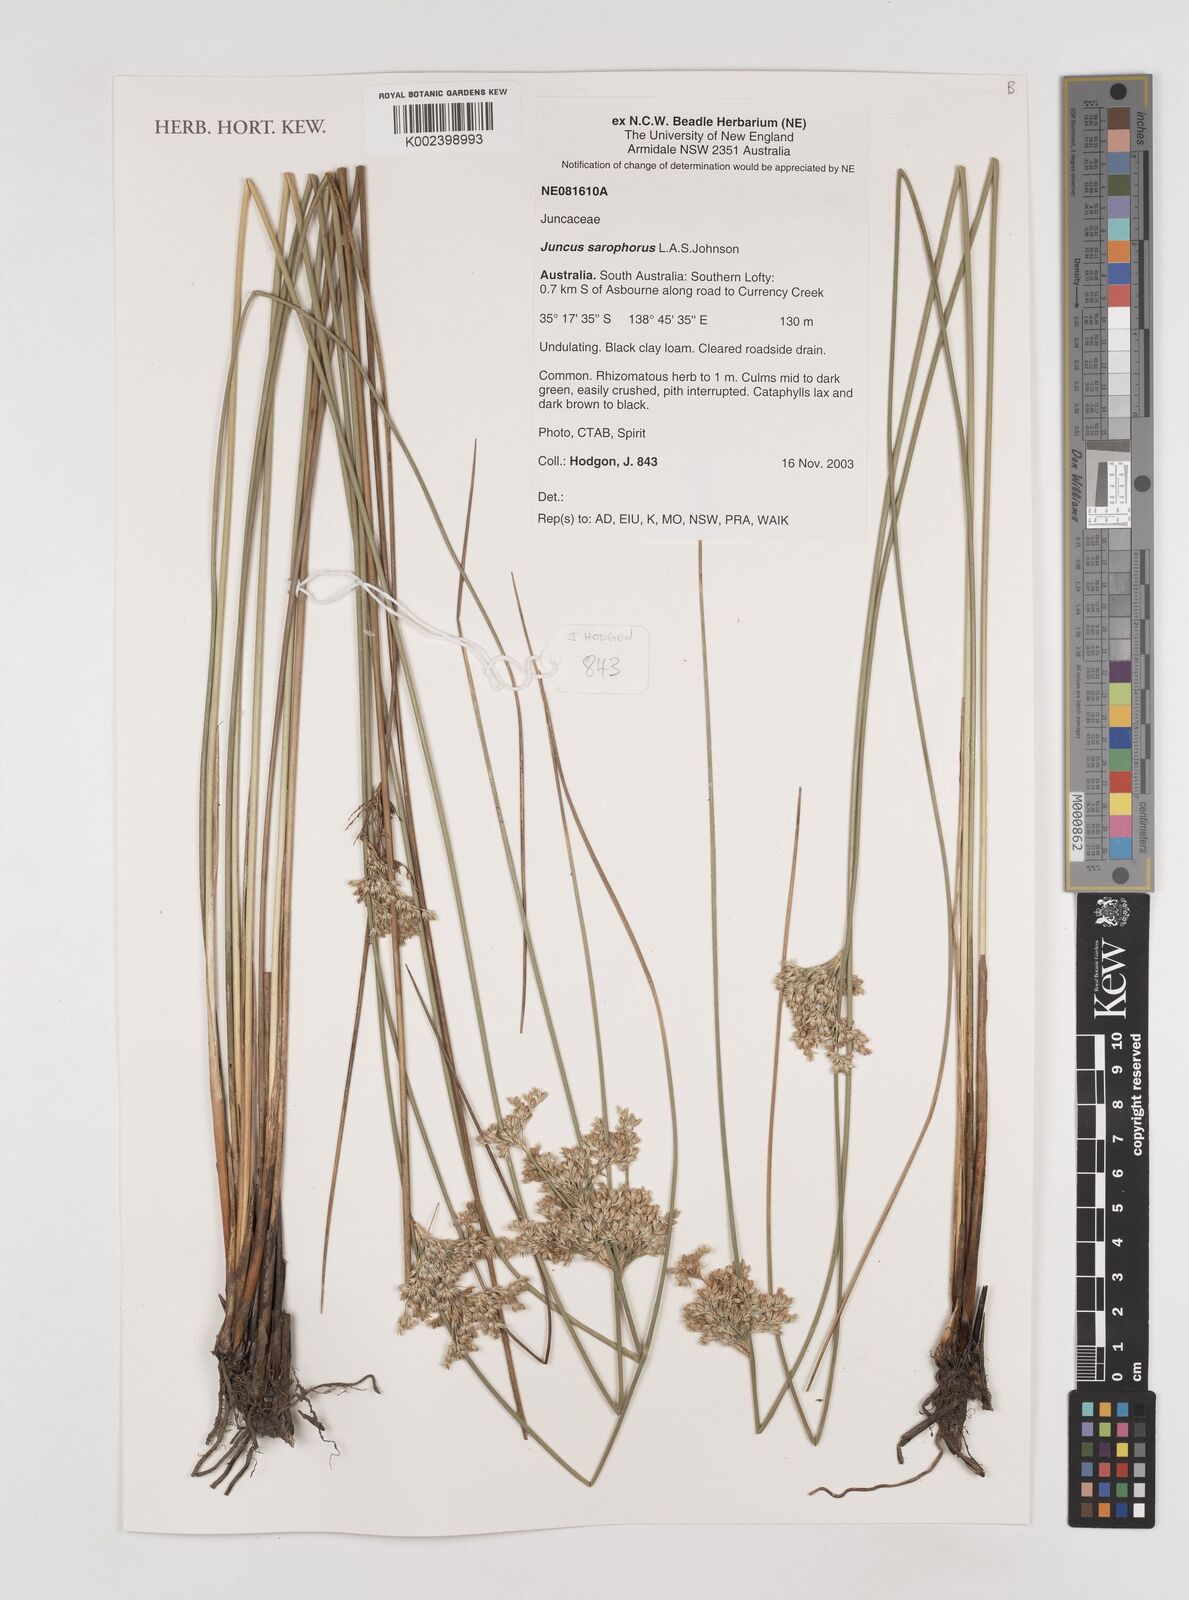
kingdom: Plantae
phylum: Tracheophyta
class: Liliopsida
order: Poales
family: Juncaceae
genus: Juncus
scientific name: Juncus sarophorus
